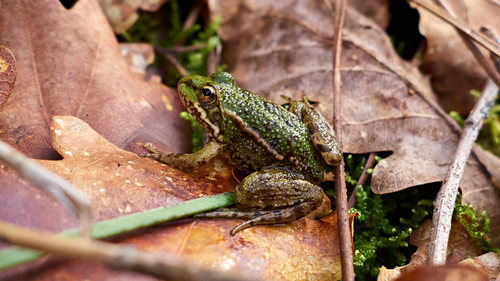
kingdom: Animalia
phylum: Chordata
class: Amphibia
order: Anura
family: Ranidae
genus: Pelophylax
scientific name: Pelophylax perezi
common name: Perez's frog
